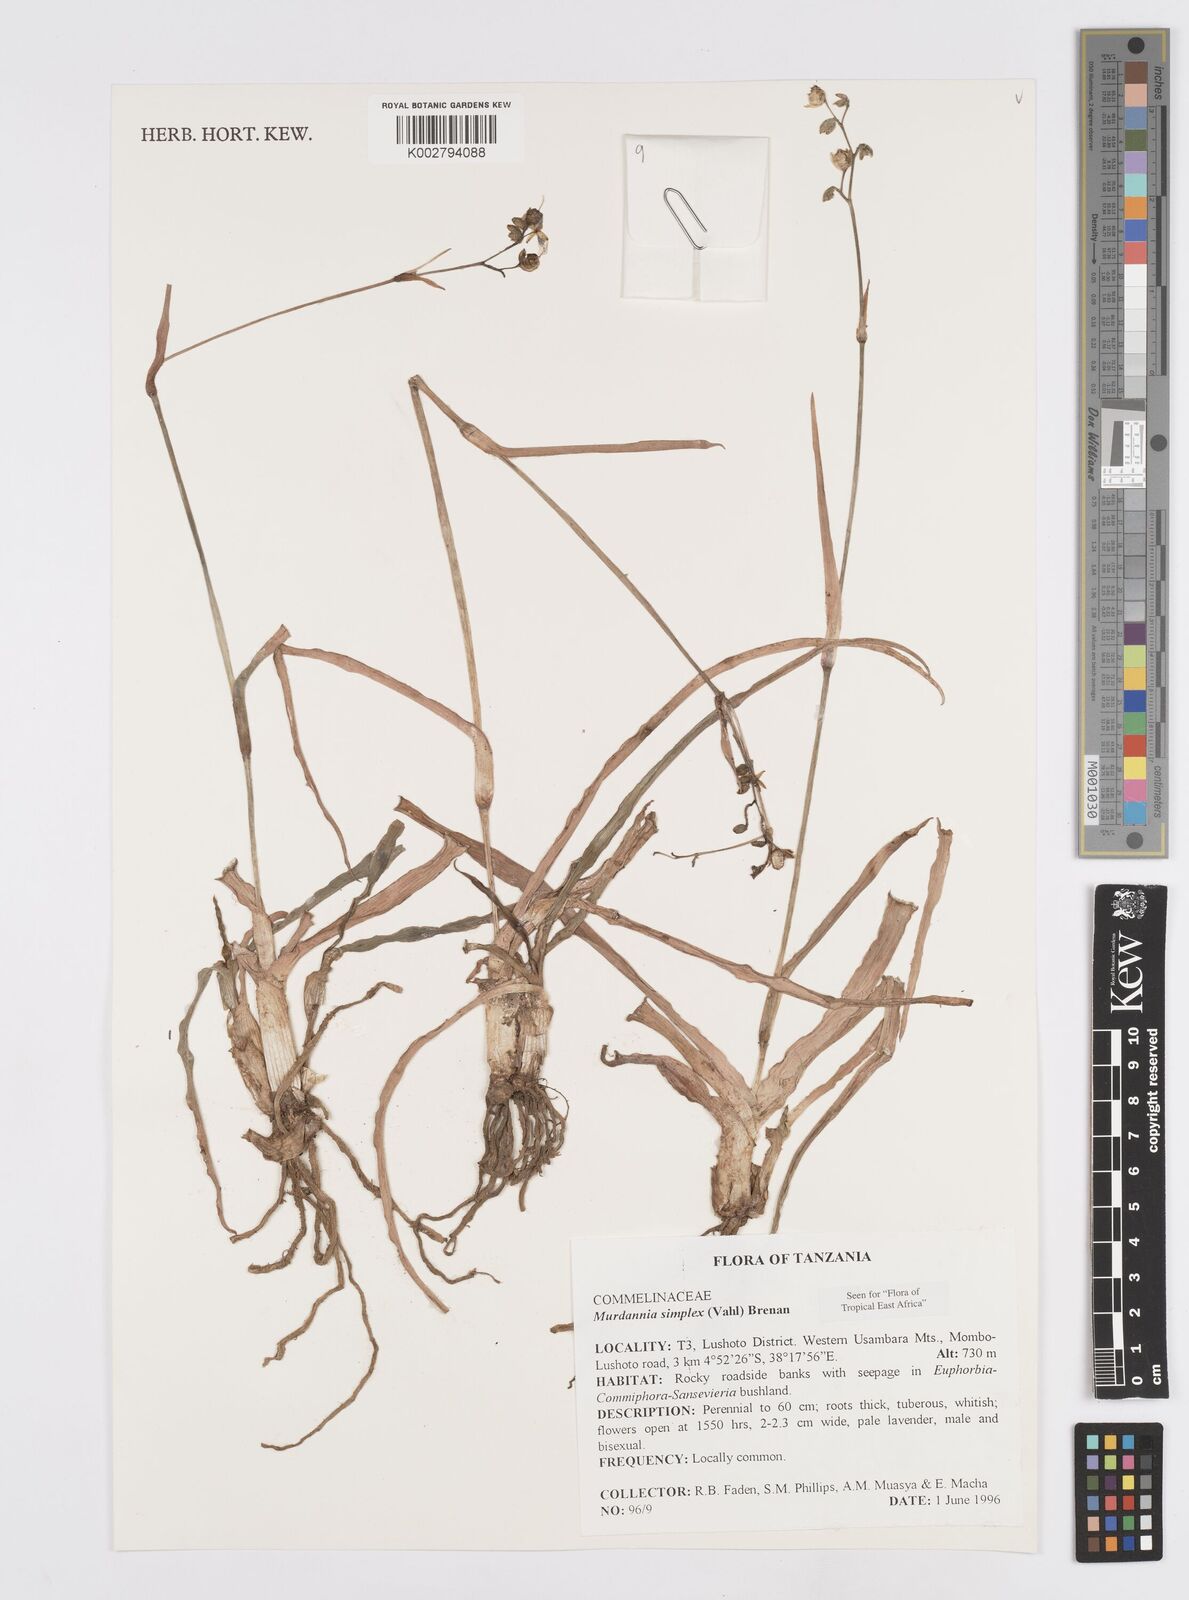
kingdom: Plantae
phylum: Tracheophyta
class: Liliopsida
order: Commelinales
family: Commelinaceae
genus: Murdannia
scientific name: Murdannia simplex
